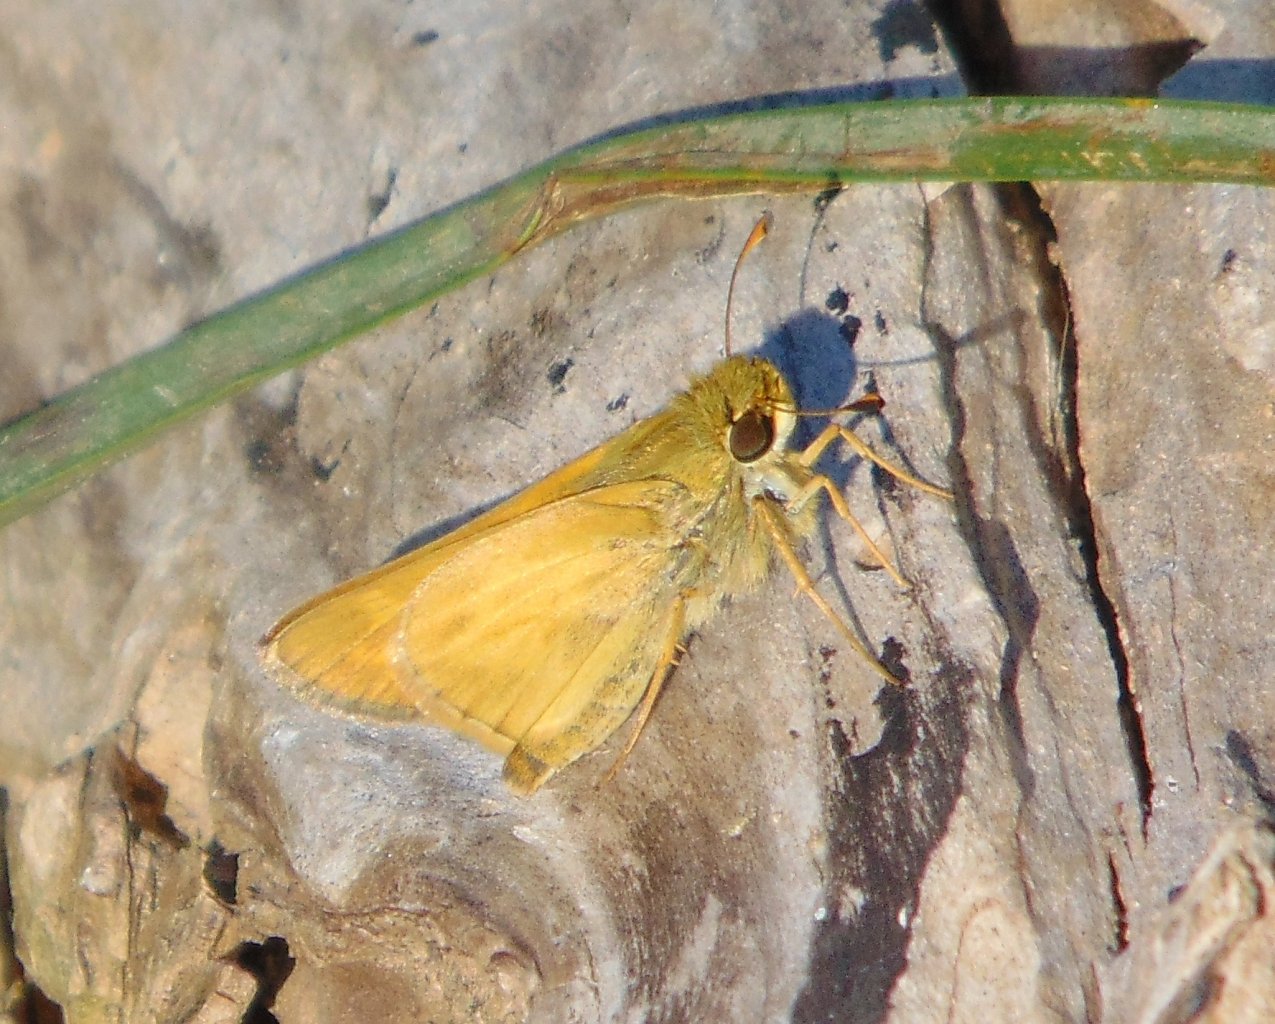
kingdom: Animalia
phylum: Arthropoda
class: Insecta
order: Lepidoptera
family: Hesperiidae
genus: Atalopedes
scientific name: Atalopedes campestris
